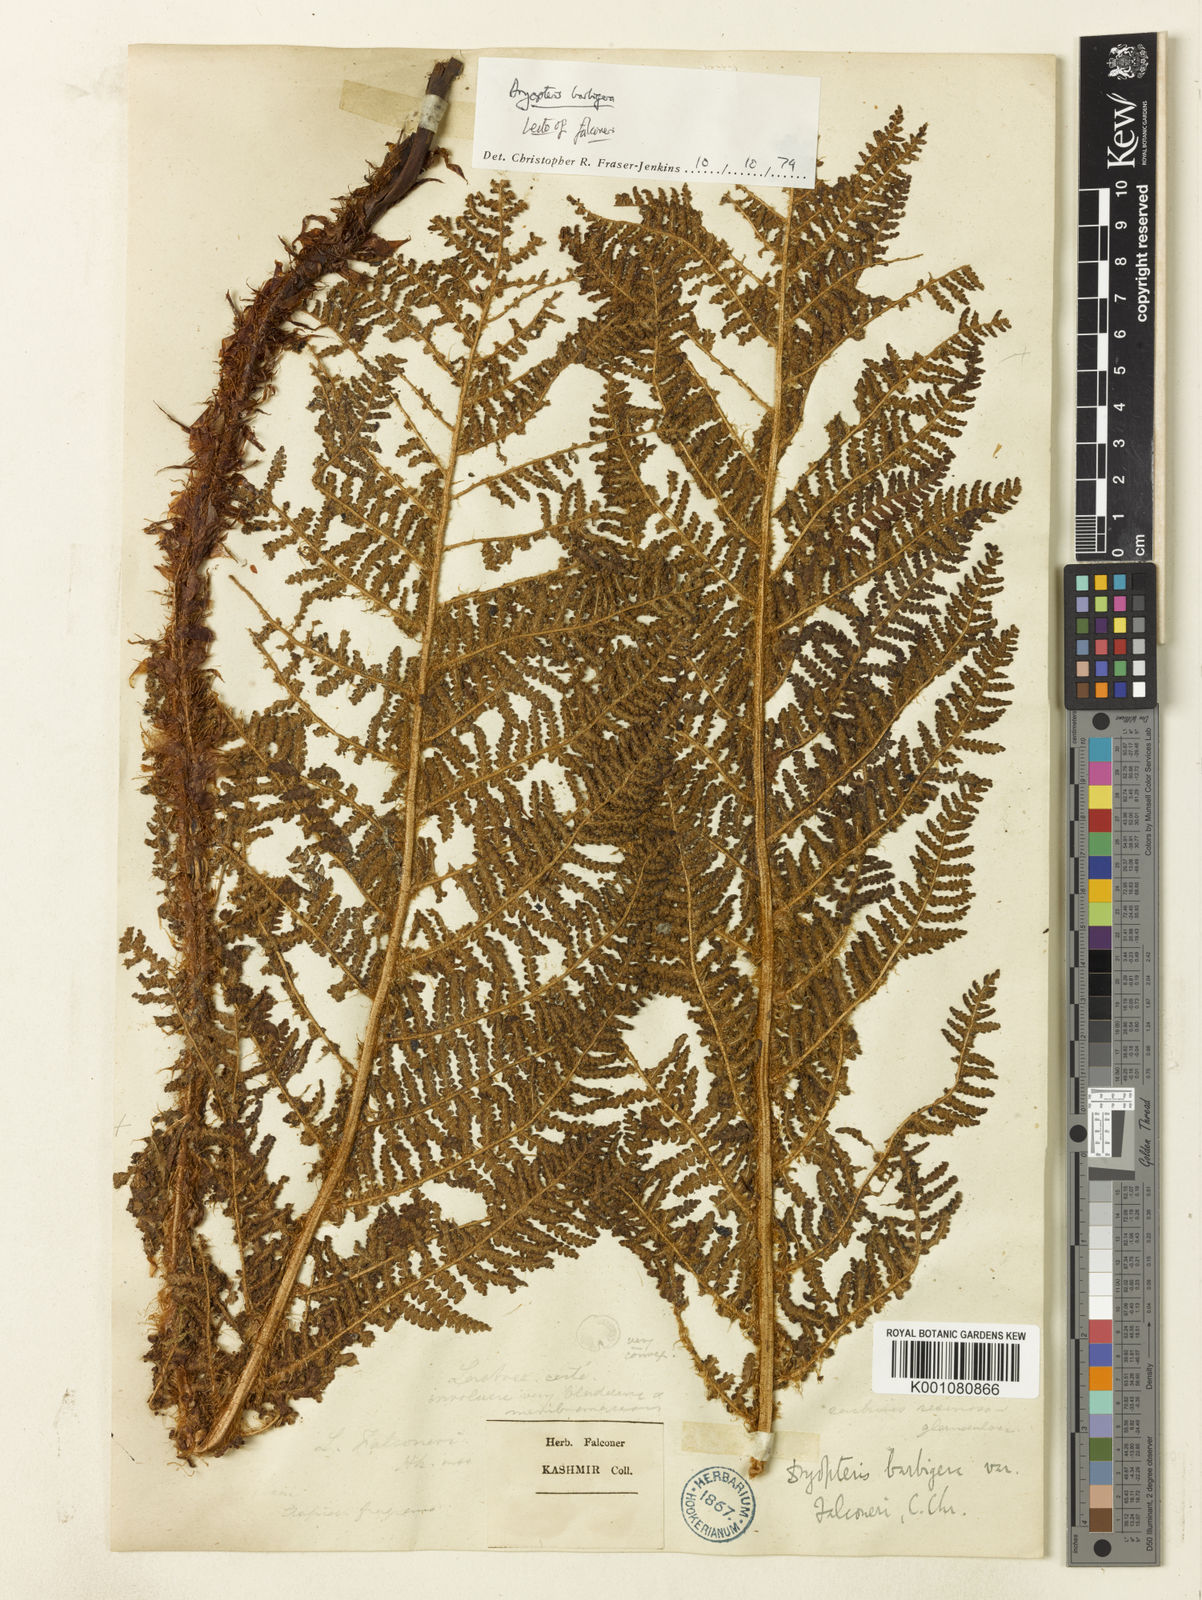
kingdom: Plantae
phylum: Tracheophyta
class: Polypodiopsida
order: Polypodiales
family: Dryopteridaceae
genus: Dryopteris
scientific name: Dryopteris barbigera
